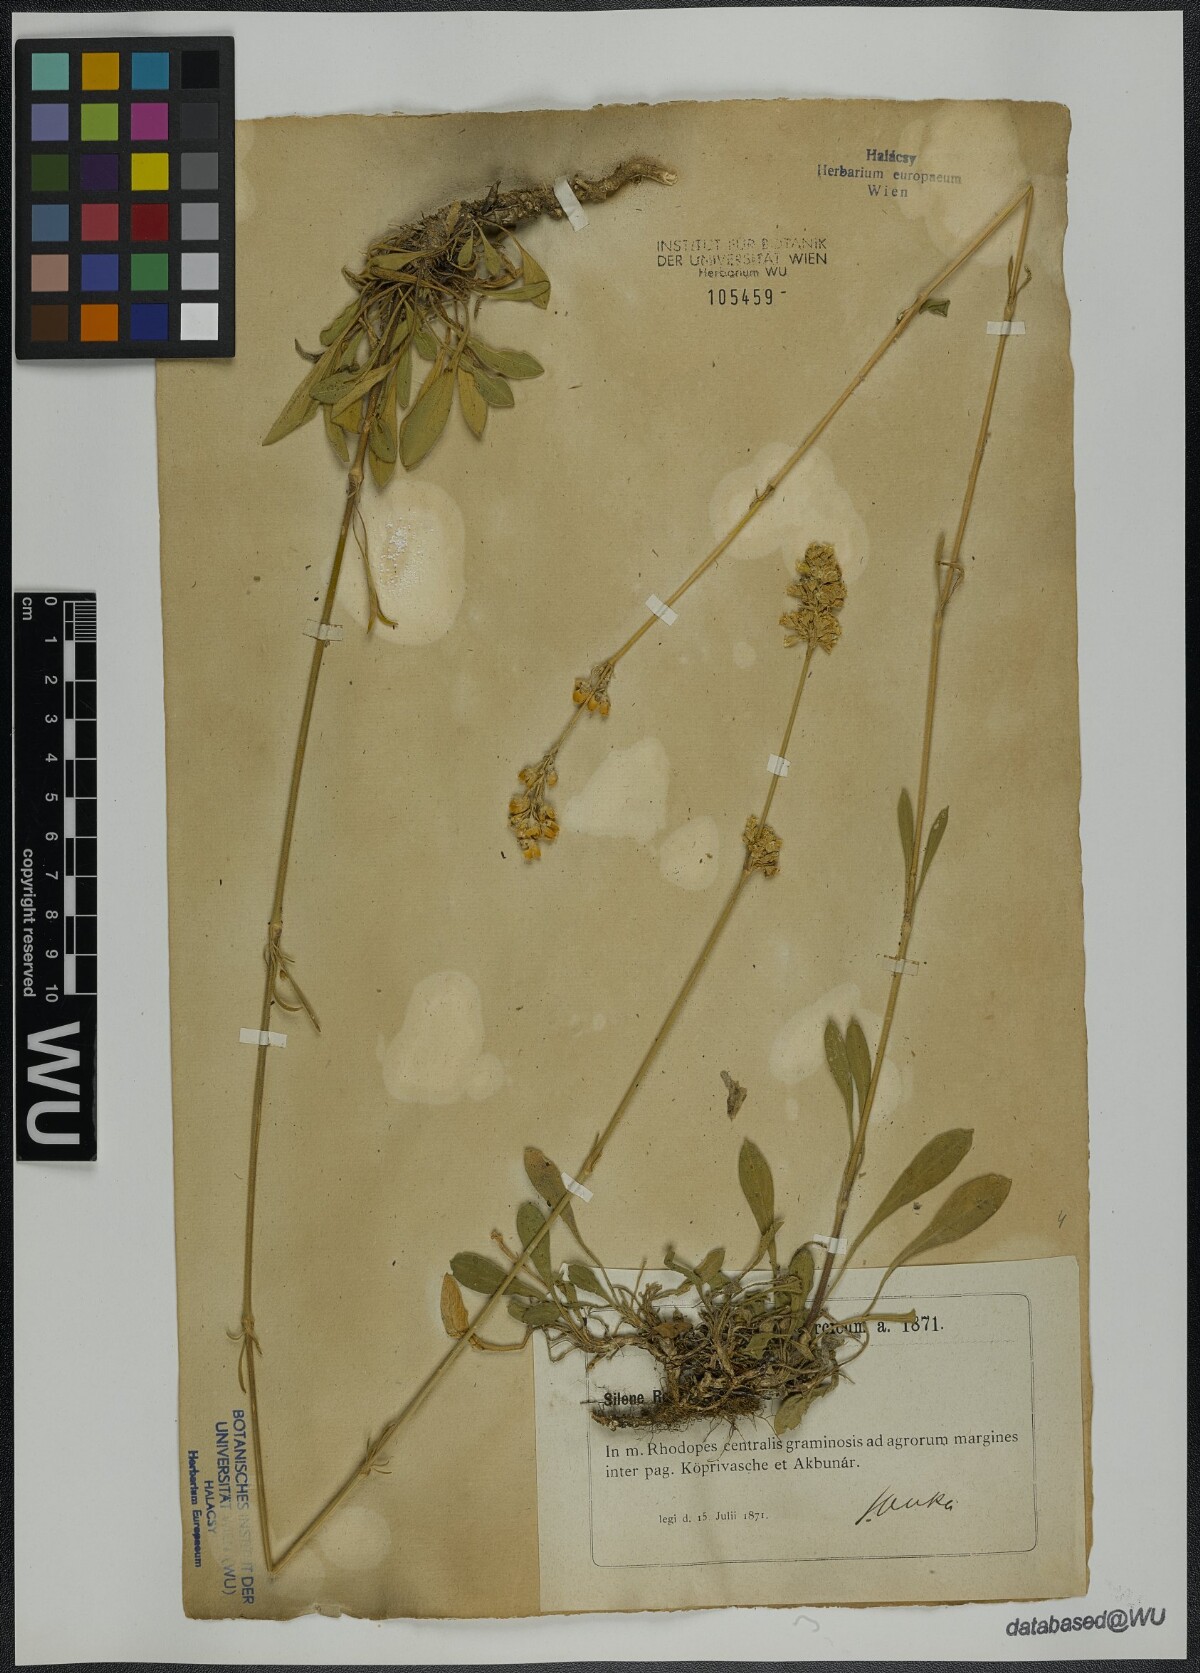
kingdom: Plantae
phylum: Tracheophyta
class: Magnoliopsida
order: Caryophyllales
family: Caryophyllaceae
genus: Silene
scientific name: Silene roemeri
